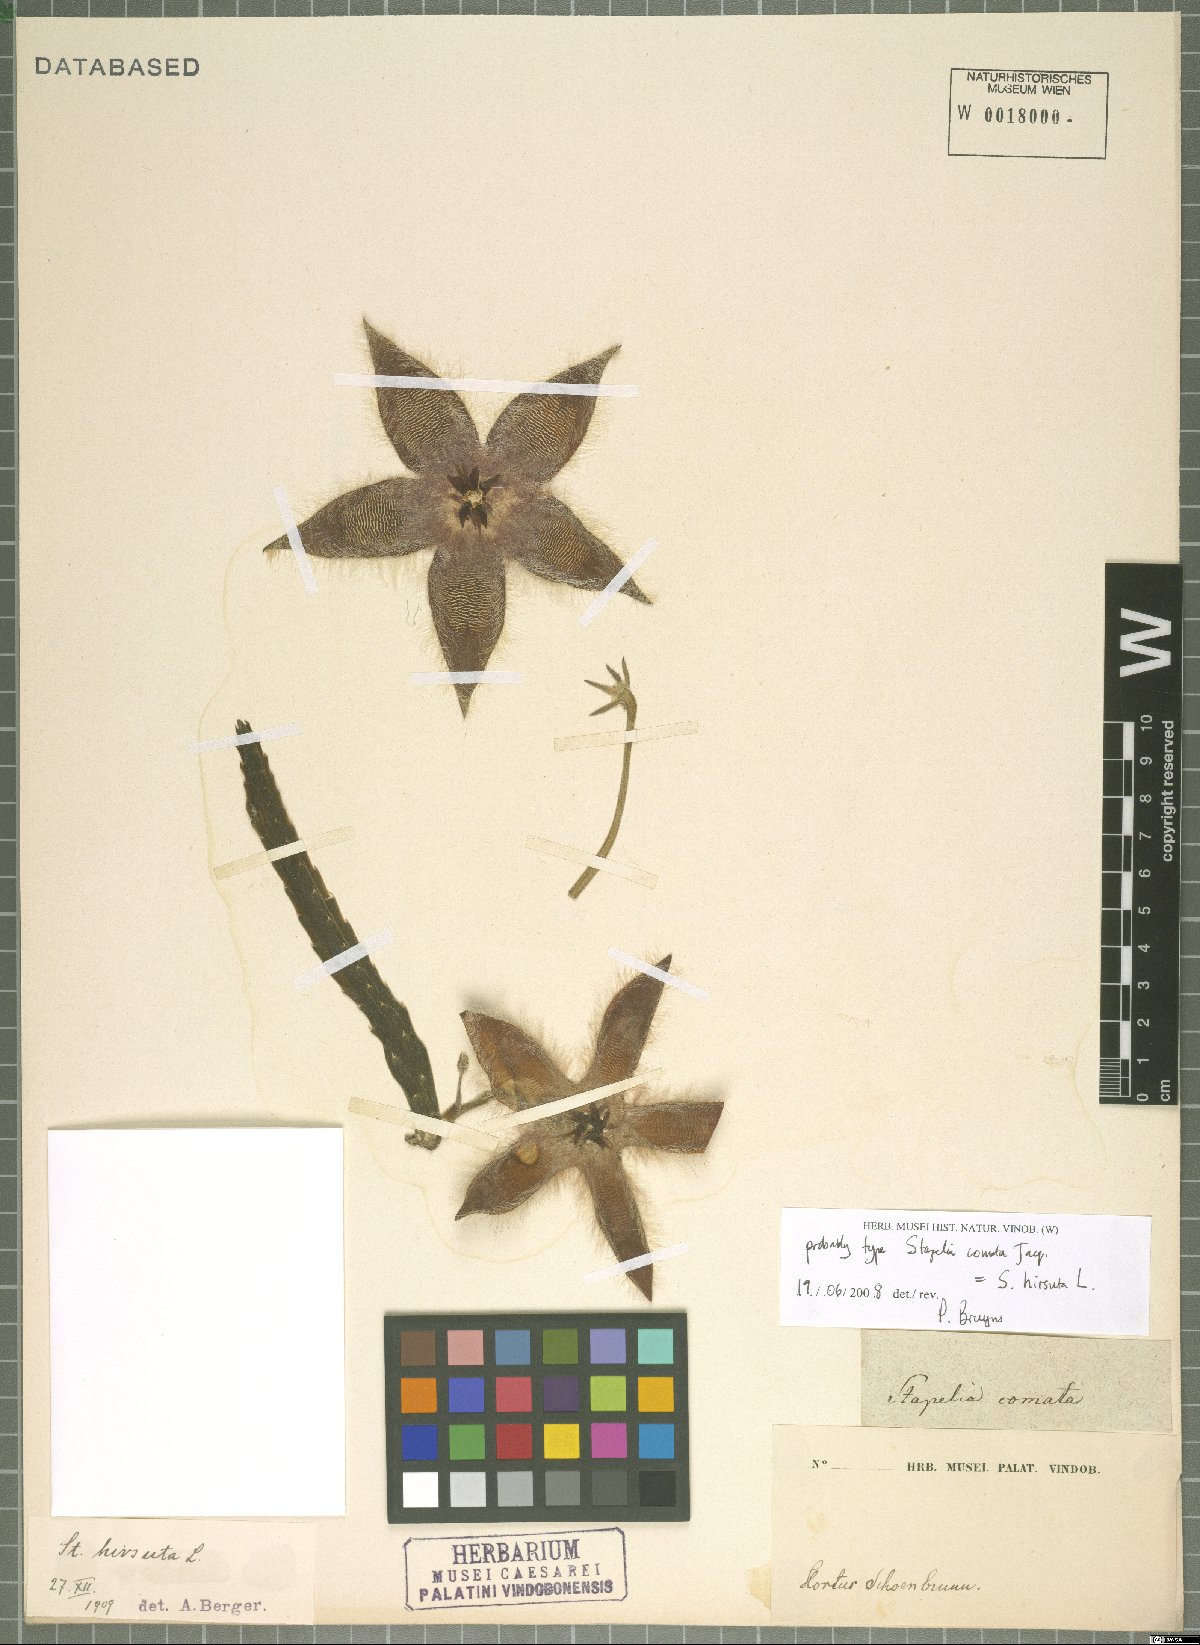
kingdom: Plantae
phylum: Tracheophyta
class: Magnoliopsida
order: Gentianales
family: Apocynaceae
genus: Ceropegia
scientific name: Ceropegia pulvinata
